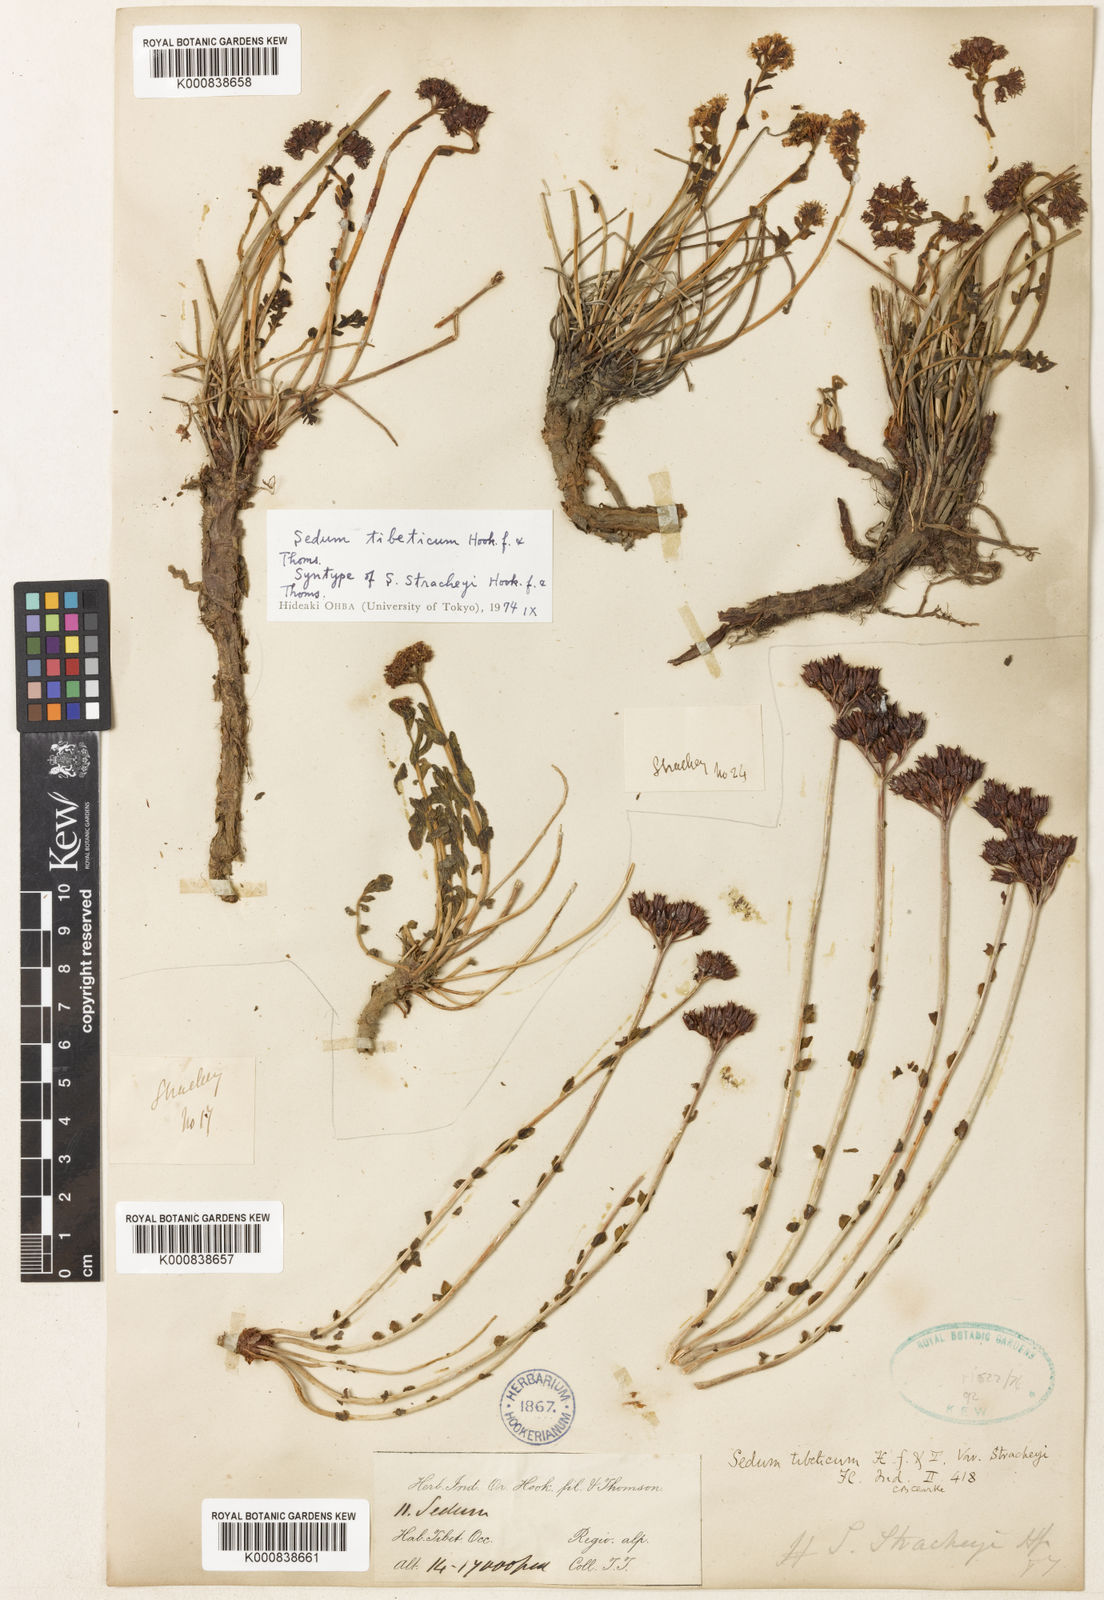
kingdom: Plantae
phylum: Tracheophyta
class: Magnoliopsida
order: Saxifragales
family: Crassulaceae
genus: Rhodiola
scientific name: Rhodiola tibetica
